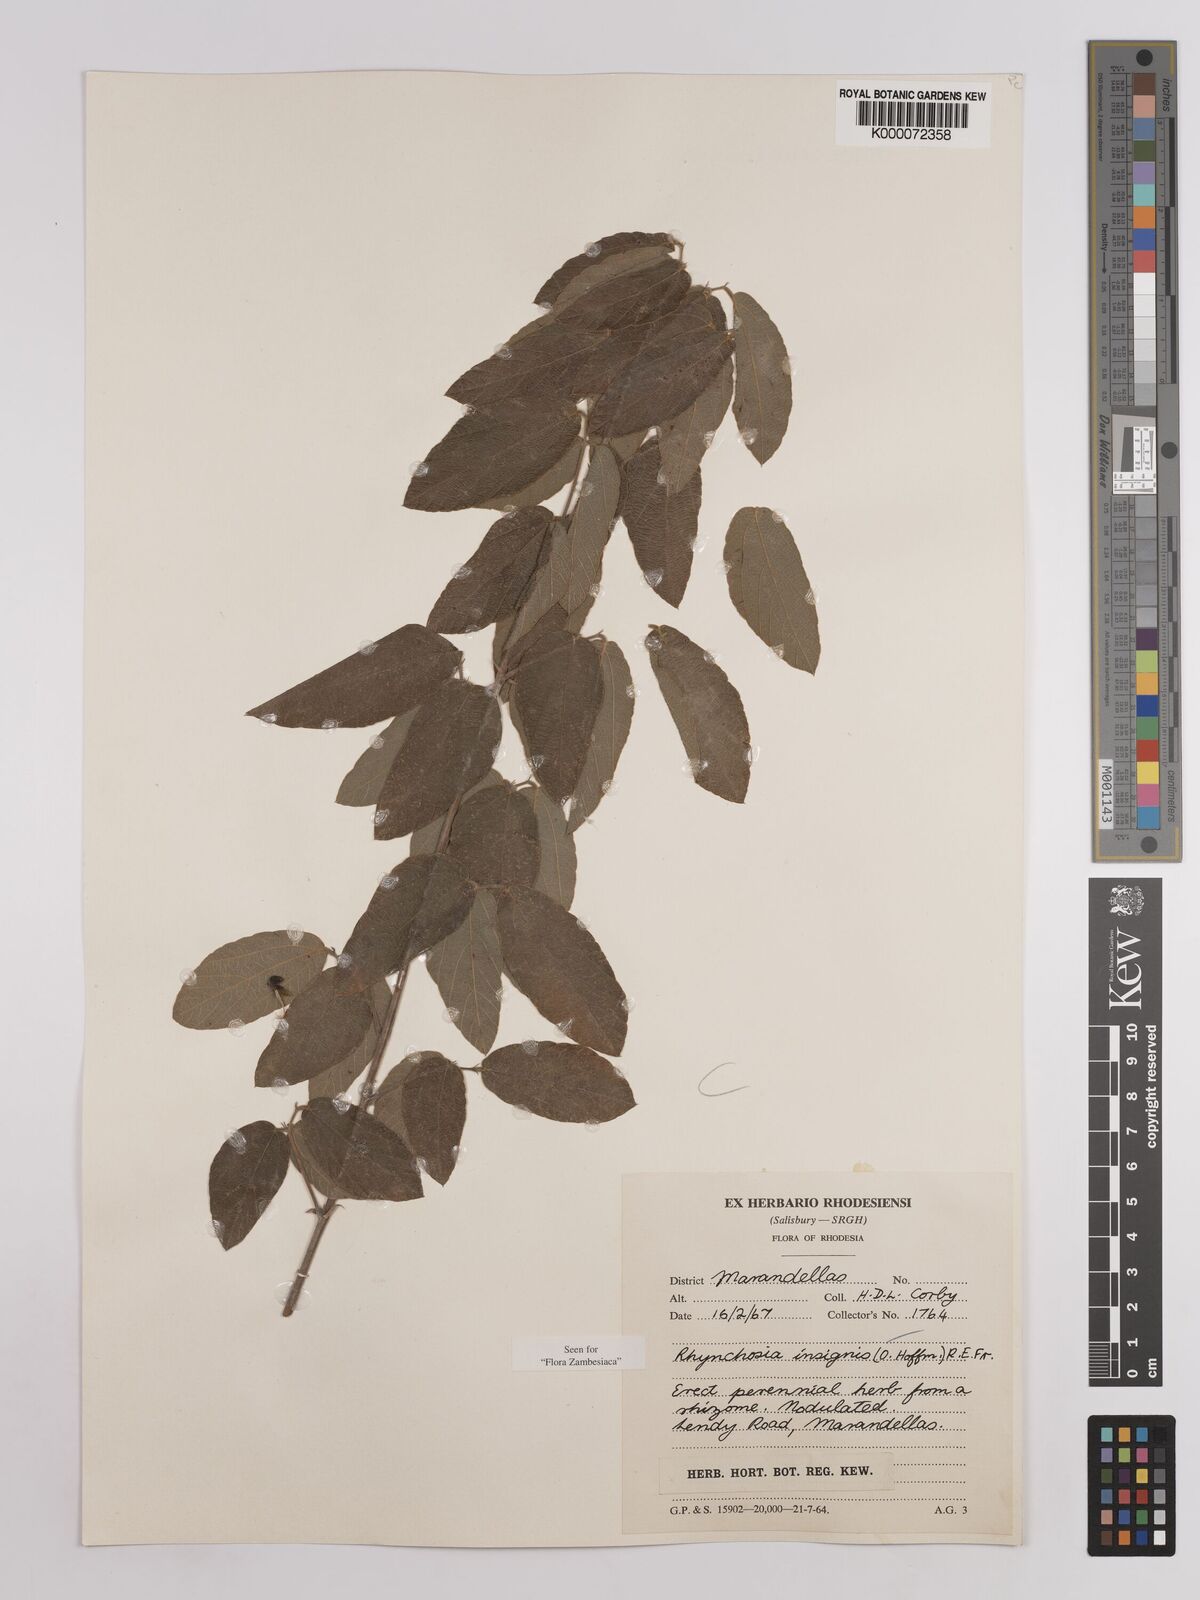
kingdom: Plantae
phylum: Tracheophyta
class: Magnoliopsida
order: Fabales
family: Fabaceae
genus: Rhynchosia
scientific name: Rhynchosia insignis
